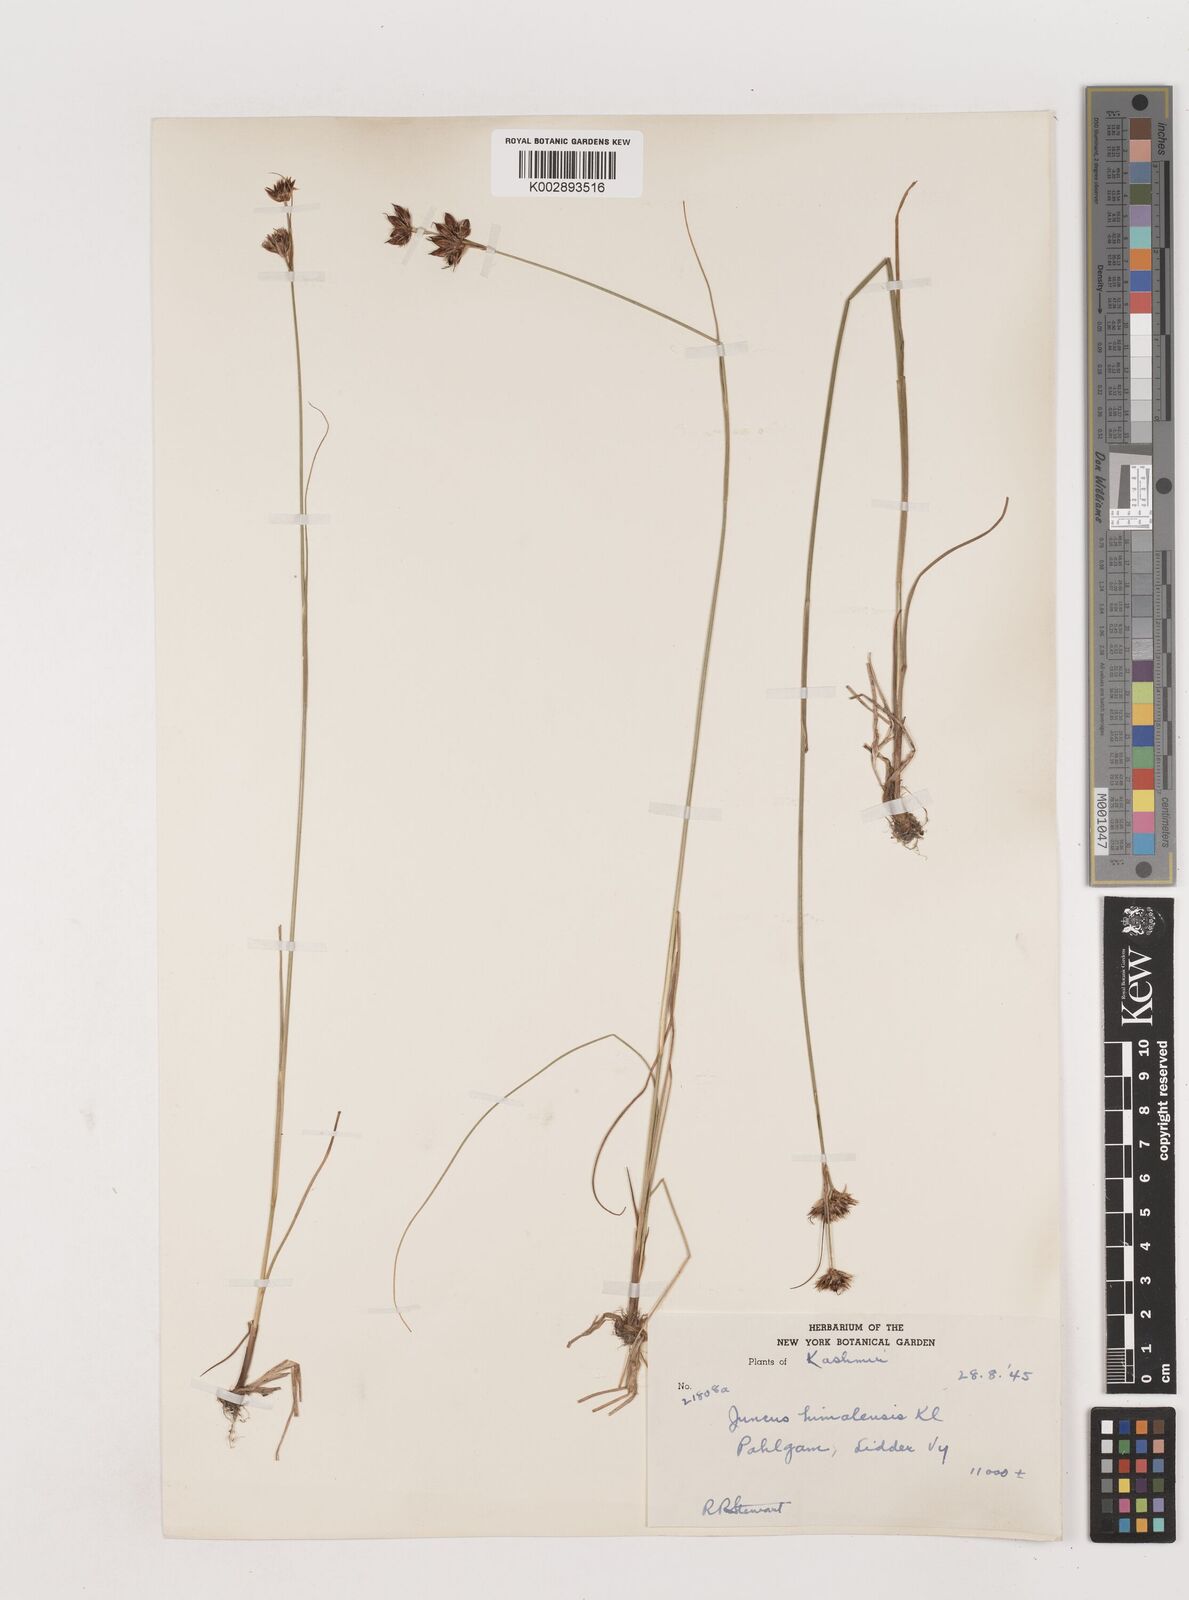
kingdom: Plantae
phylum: Tracheophyta
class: Liliopsida
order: Poales
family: Juncaceae
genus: Juncus
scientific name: Juncus himalensis
